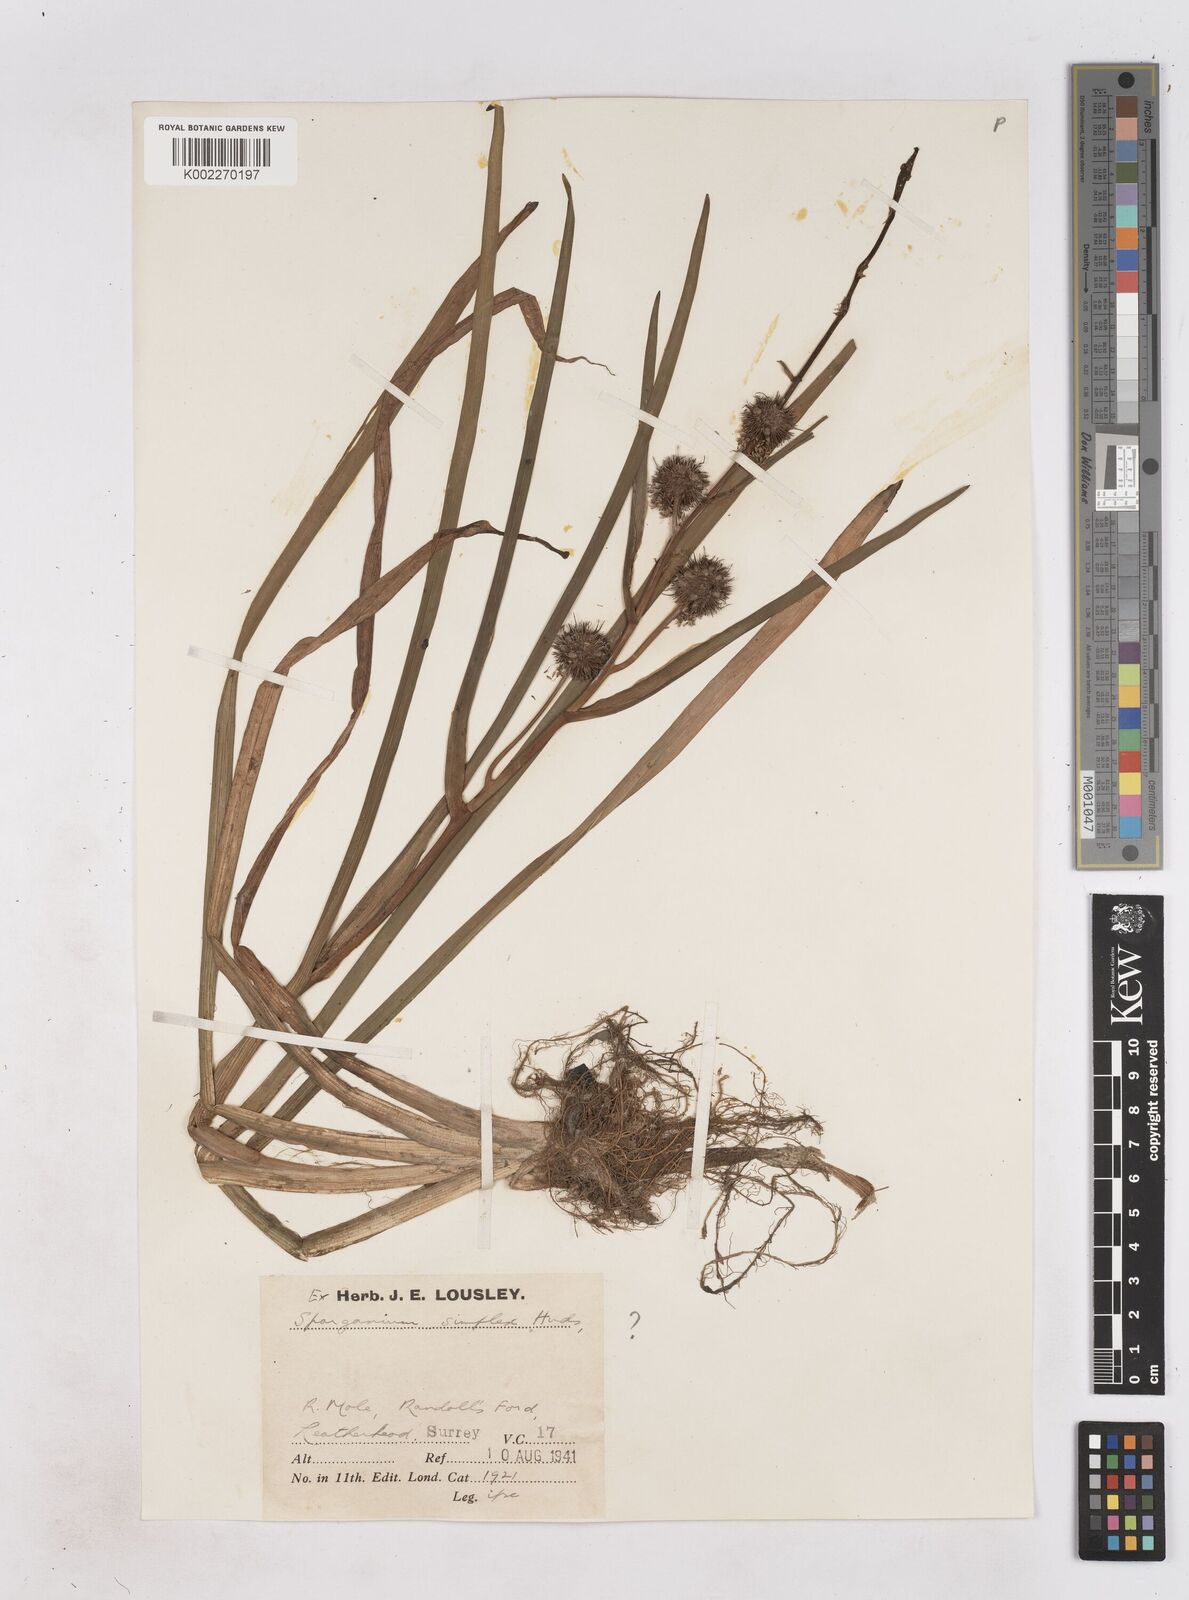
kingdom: Plantae
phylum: Tracheophyta
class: Liliopsida
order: Poales
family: Typhaceae
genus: Sparganium
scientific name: Sparganium emersum
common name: Unbranched bur-reed
